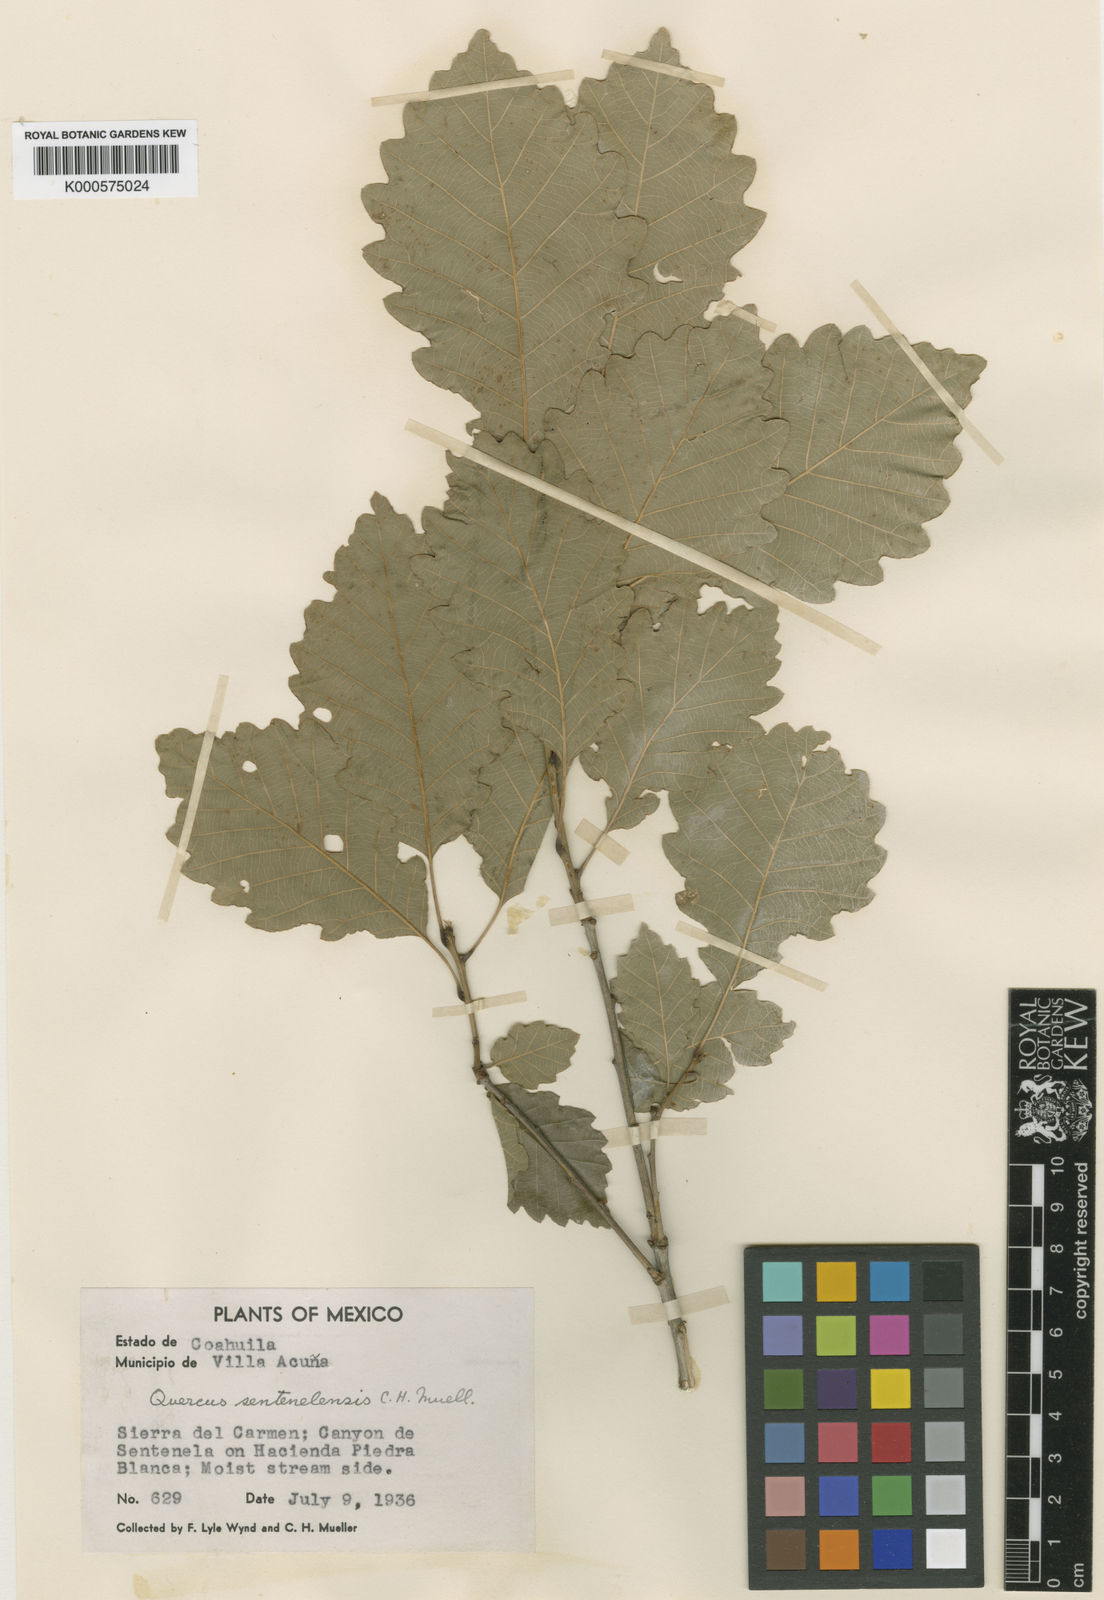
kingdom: Plantae
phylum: Tracheophyta
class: Magnoliopsida
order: Fagales
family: Fagaceae
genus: Quercus
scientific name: Quercus muehlenbergii
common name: Chinkapin oak
